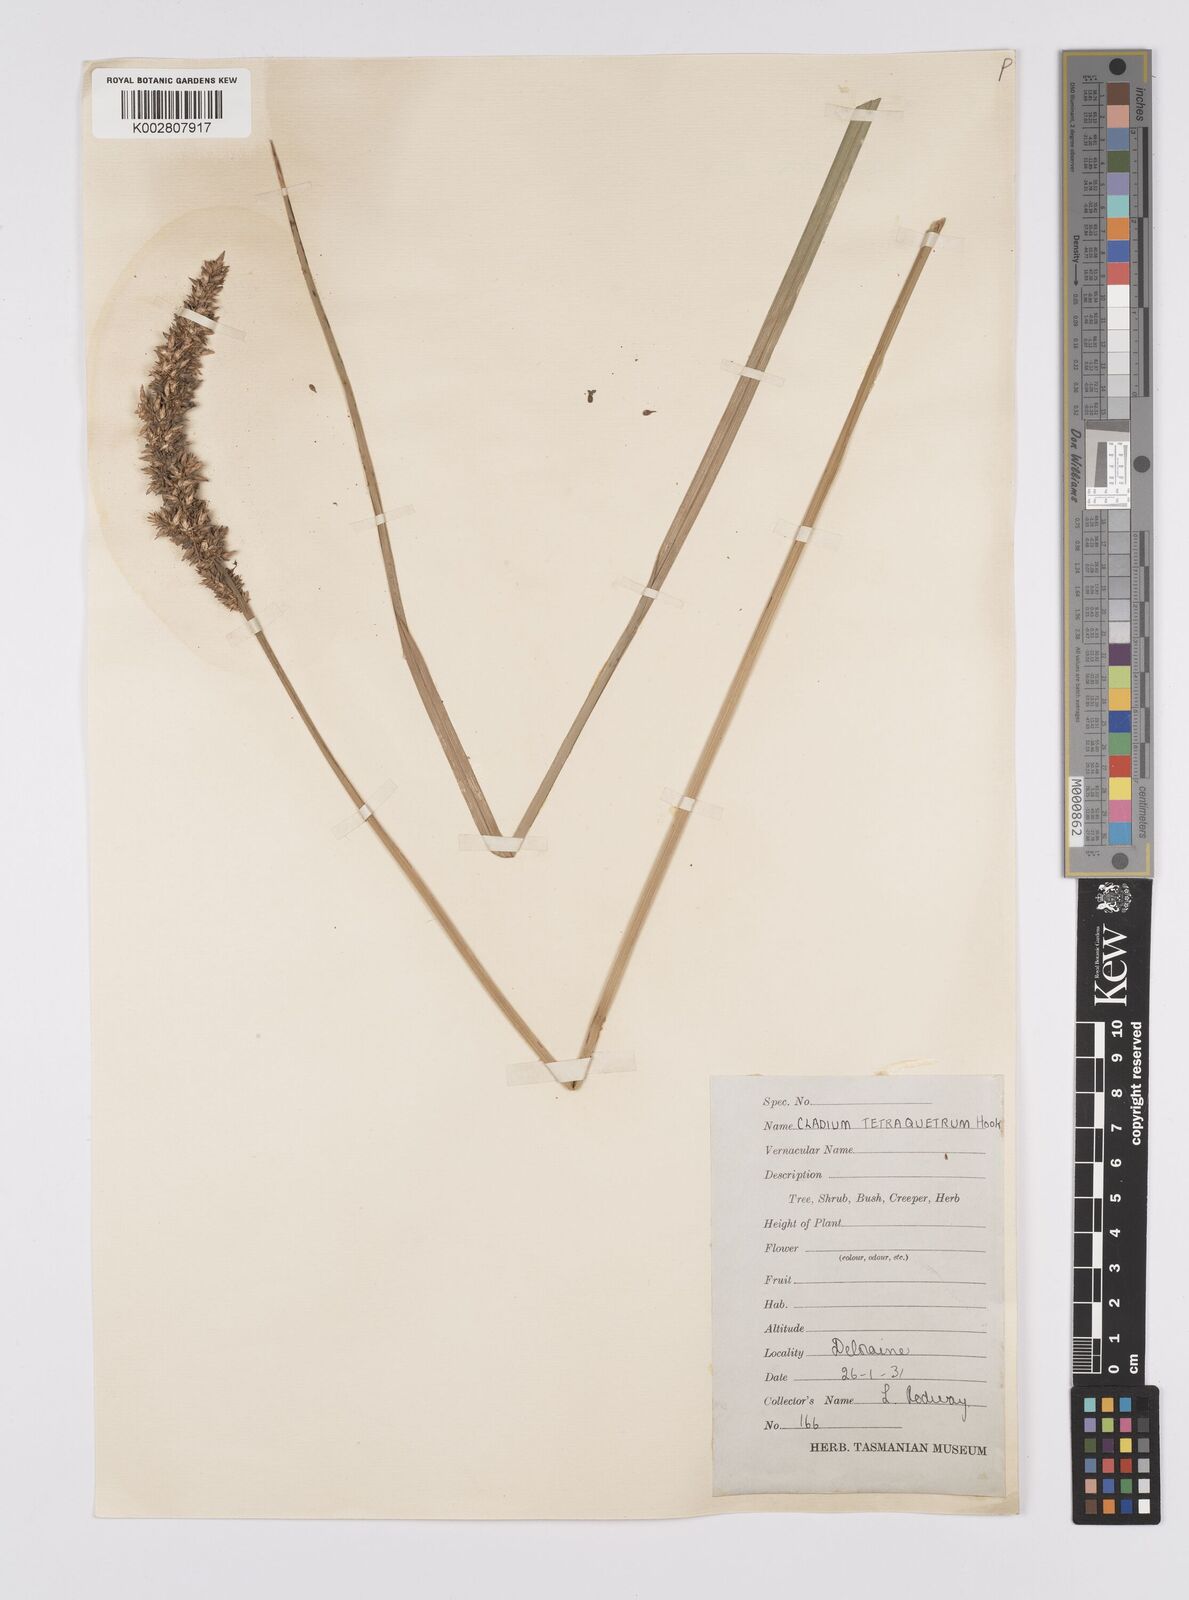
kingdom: Plantae
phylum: Tracheophyta
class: Liliopsida
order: Poales
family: Cyperaceae
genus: Carex
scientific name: Carex appressa
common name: Tussock sedge
